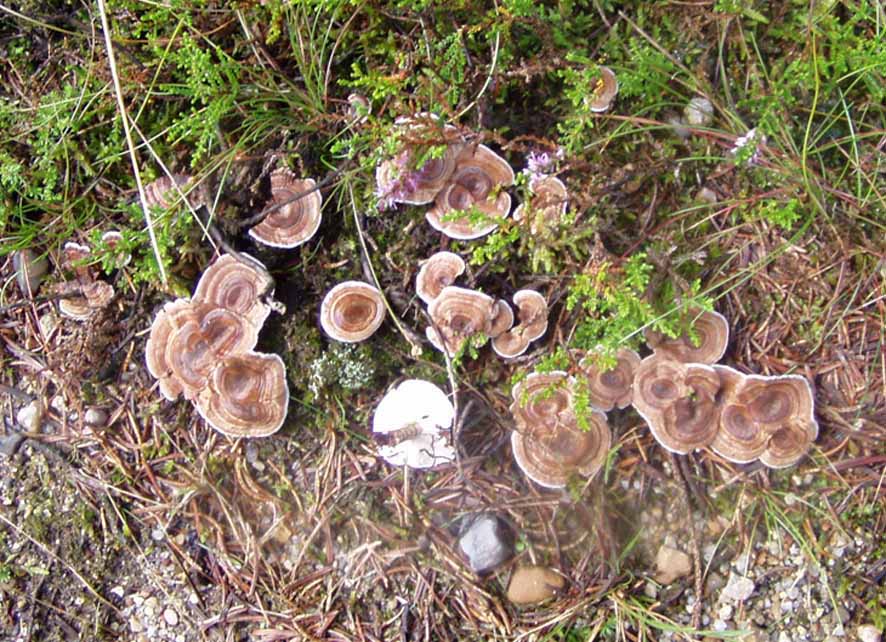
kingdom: Fungi
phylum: Basidiomycota
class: Agaricomycetes
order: Thelephorales
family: Thelephoraceae
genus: Phellodon
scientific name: Phellodon tomentosus
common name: tragtformet duftpigsvamp
